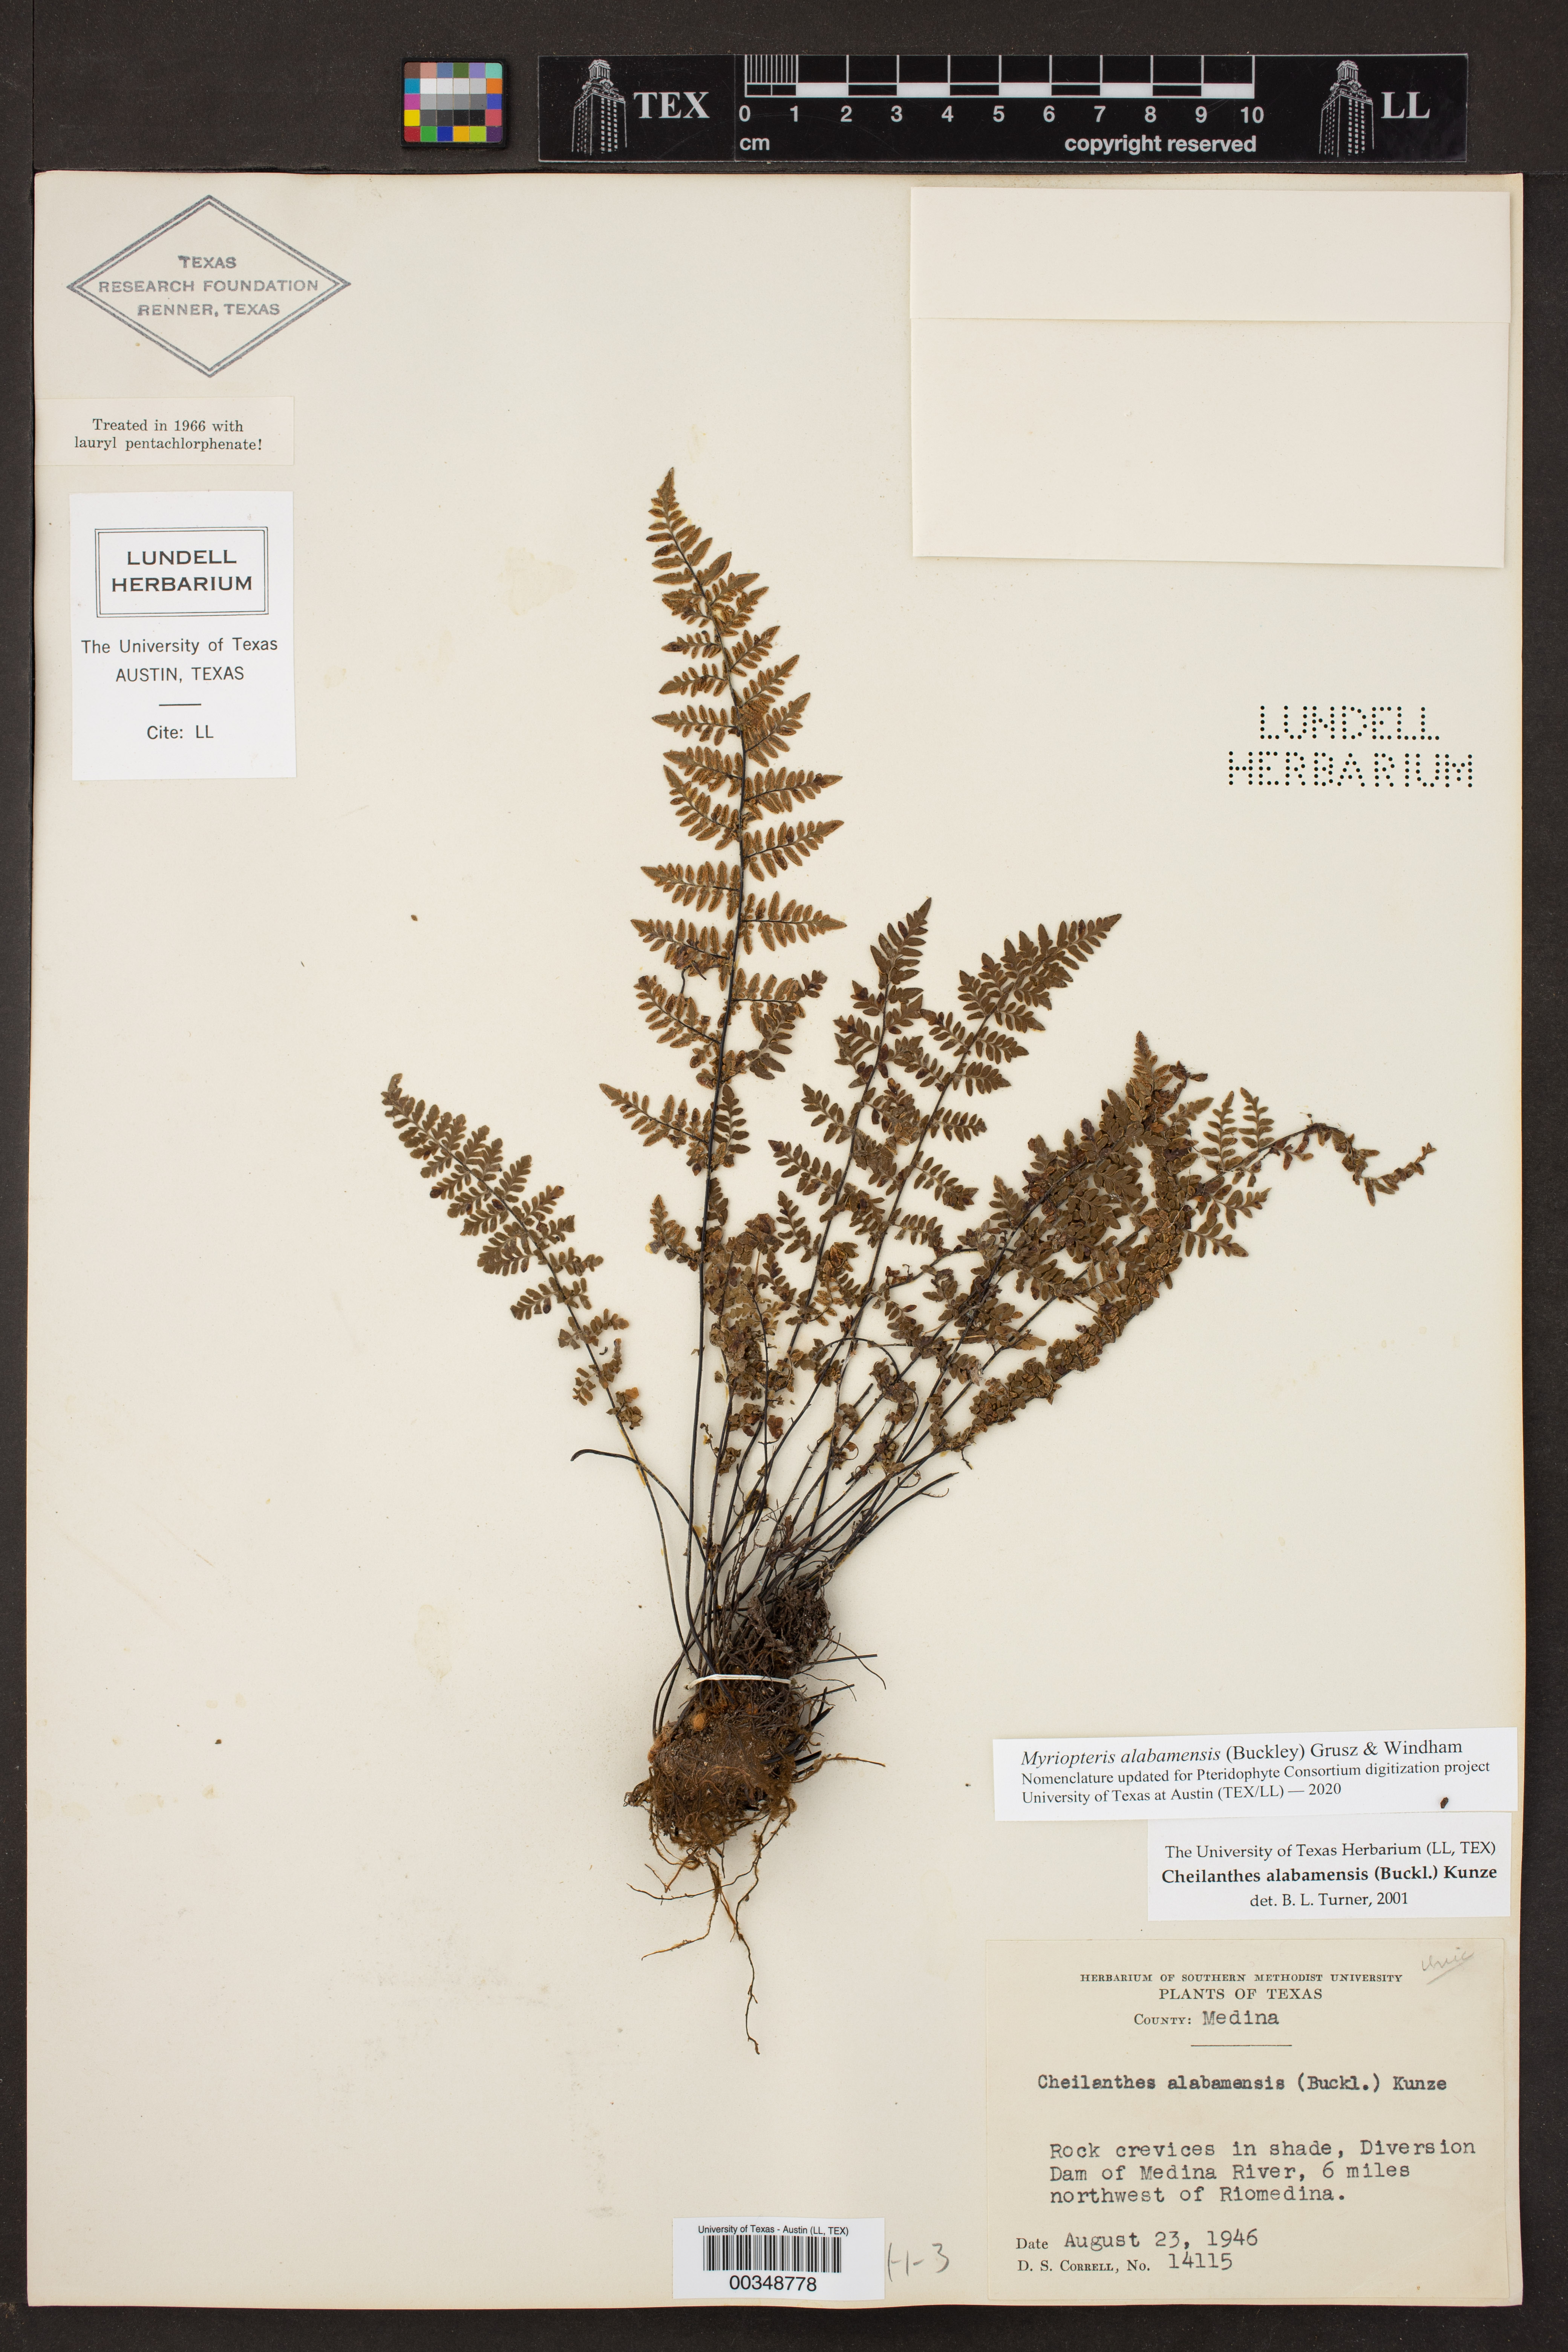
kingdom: Plantae
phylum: Tracheophyta
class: Polypodiopsida
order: Polypodiales
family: Pteridaceae
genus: Myriopteris
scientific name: Myriopteris alabamensis
